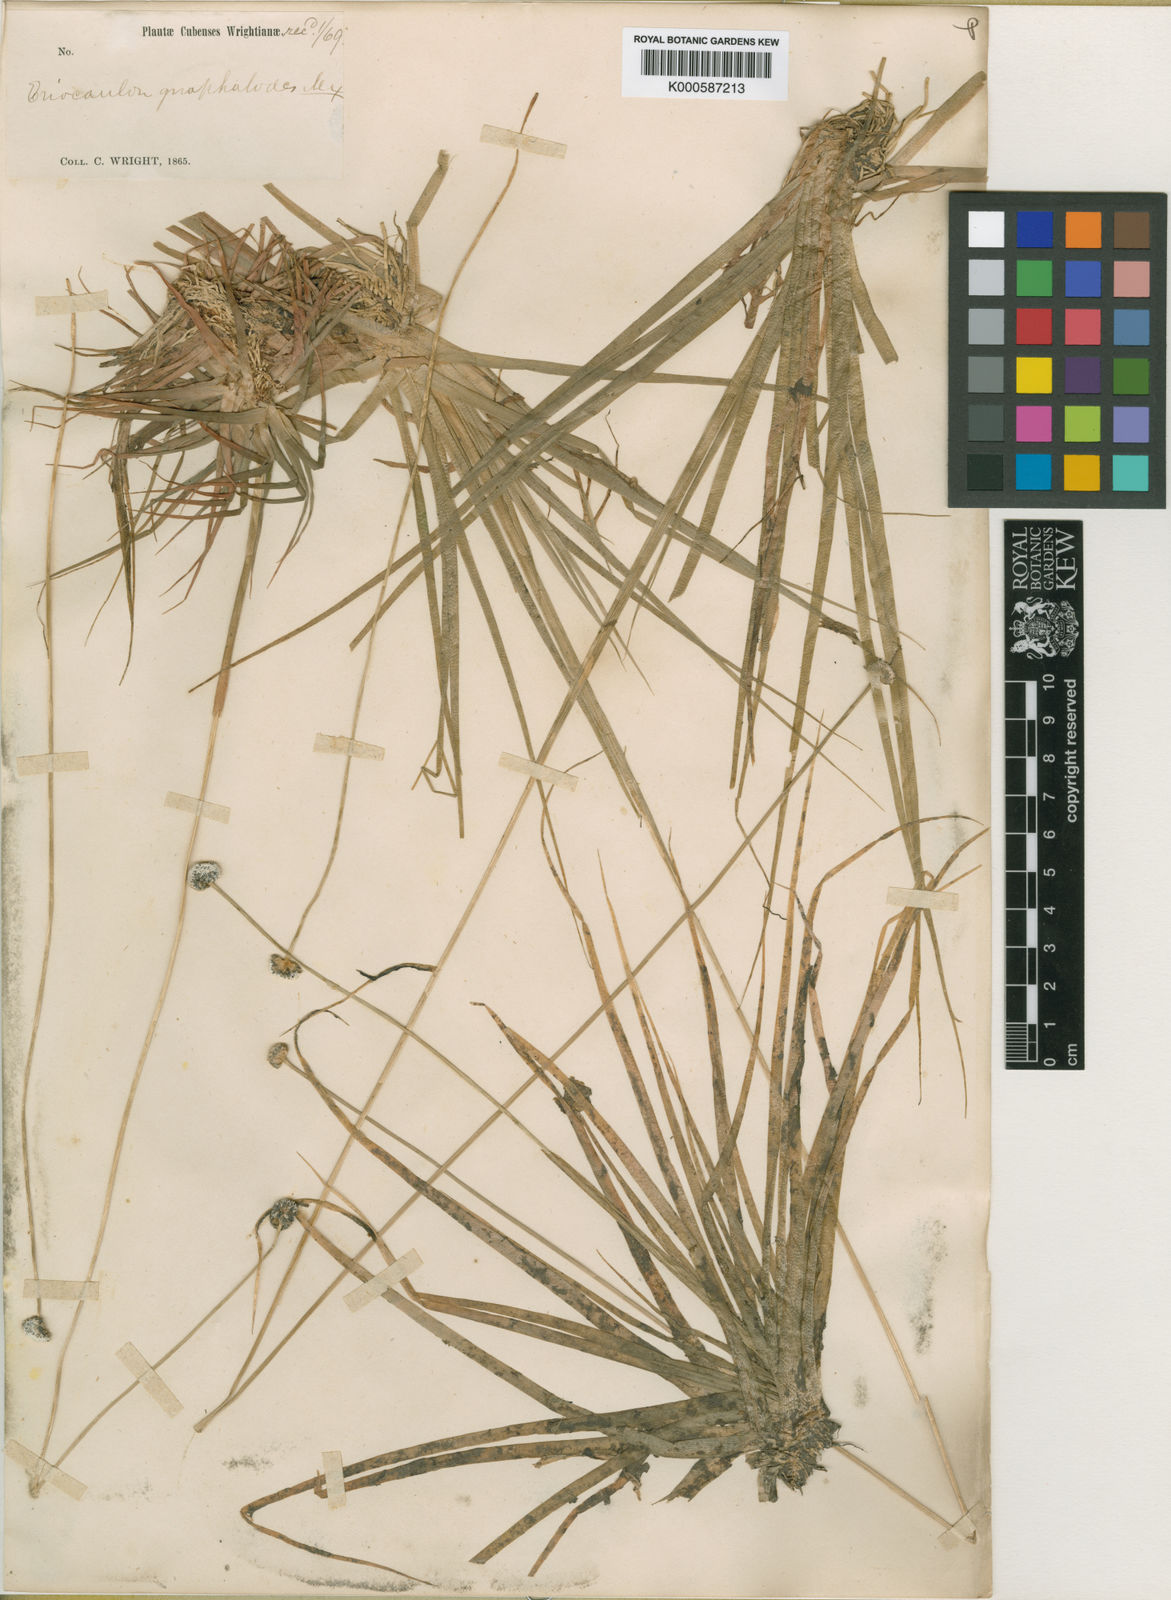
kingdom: Plantae
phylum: Tracheophyta
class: Liliopsida
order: Poales
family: Eriocaulaceae
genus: Eriocaulon
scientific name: Eriocaulon pseudocompressum
